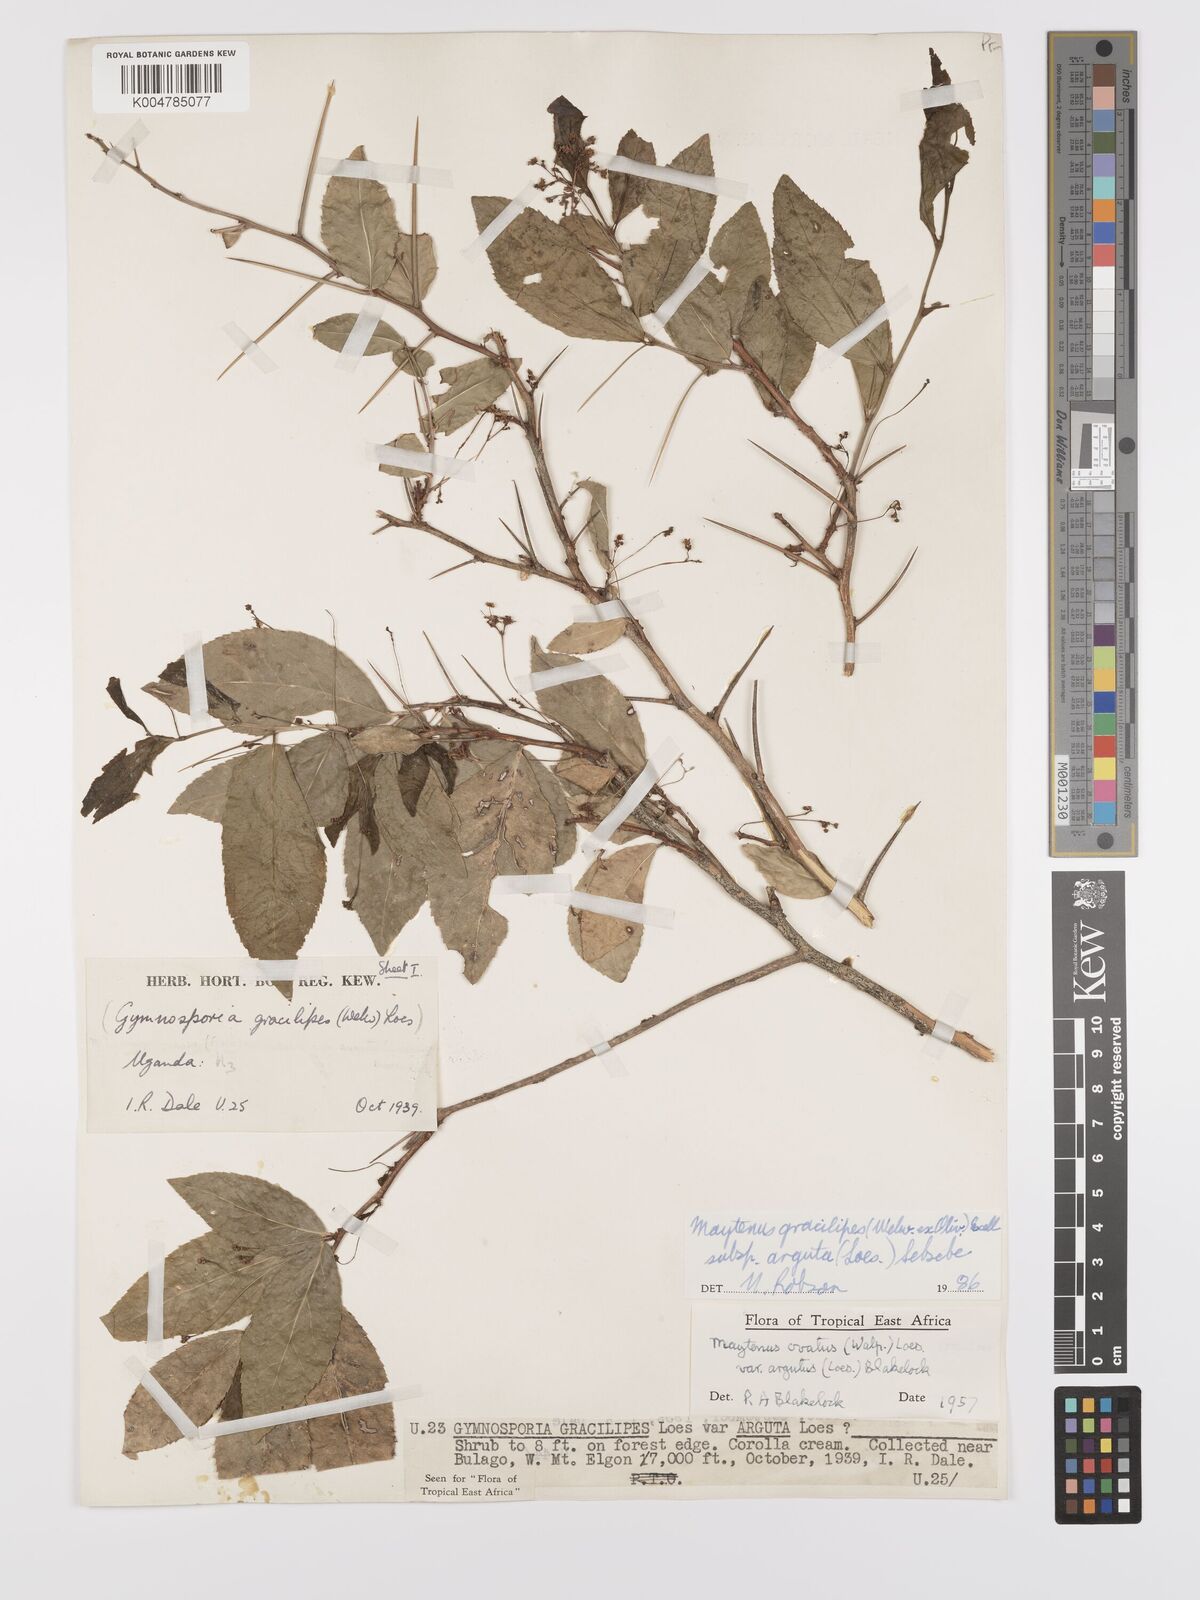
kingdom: Plantae
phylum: Tracheophyta
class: Magnoliopsida
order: Celastrales
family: Celastraceae
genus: Gymnosporia
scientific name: Gymnosporia gracilipes
